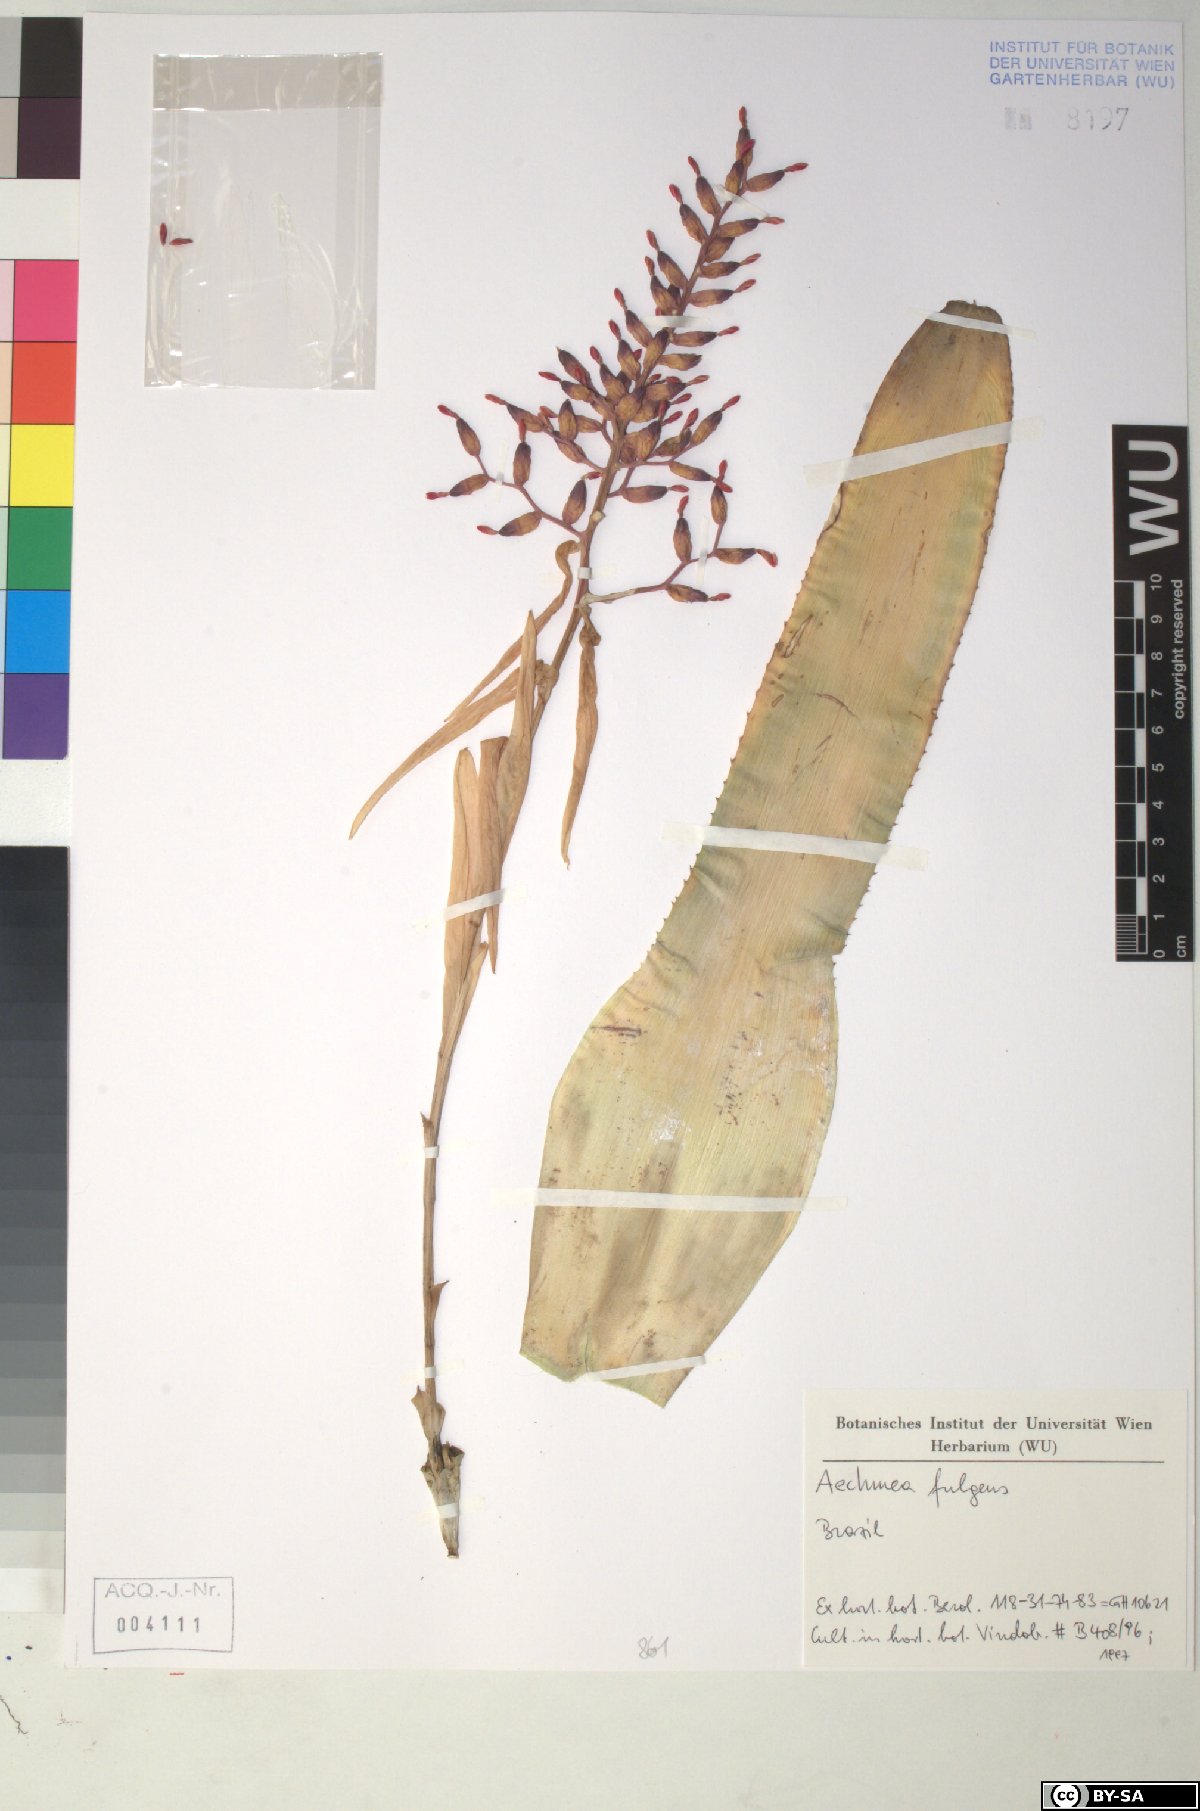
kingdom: Plantae
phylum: Tracheophyta
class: Liliopsida
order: Poales
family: Bromeliaceae
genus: Aechmea
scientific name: Aechmea fulgens
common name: Coralberry
